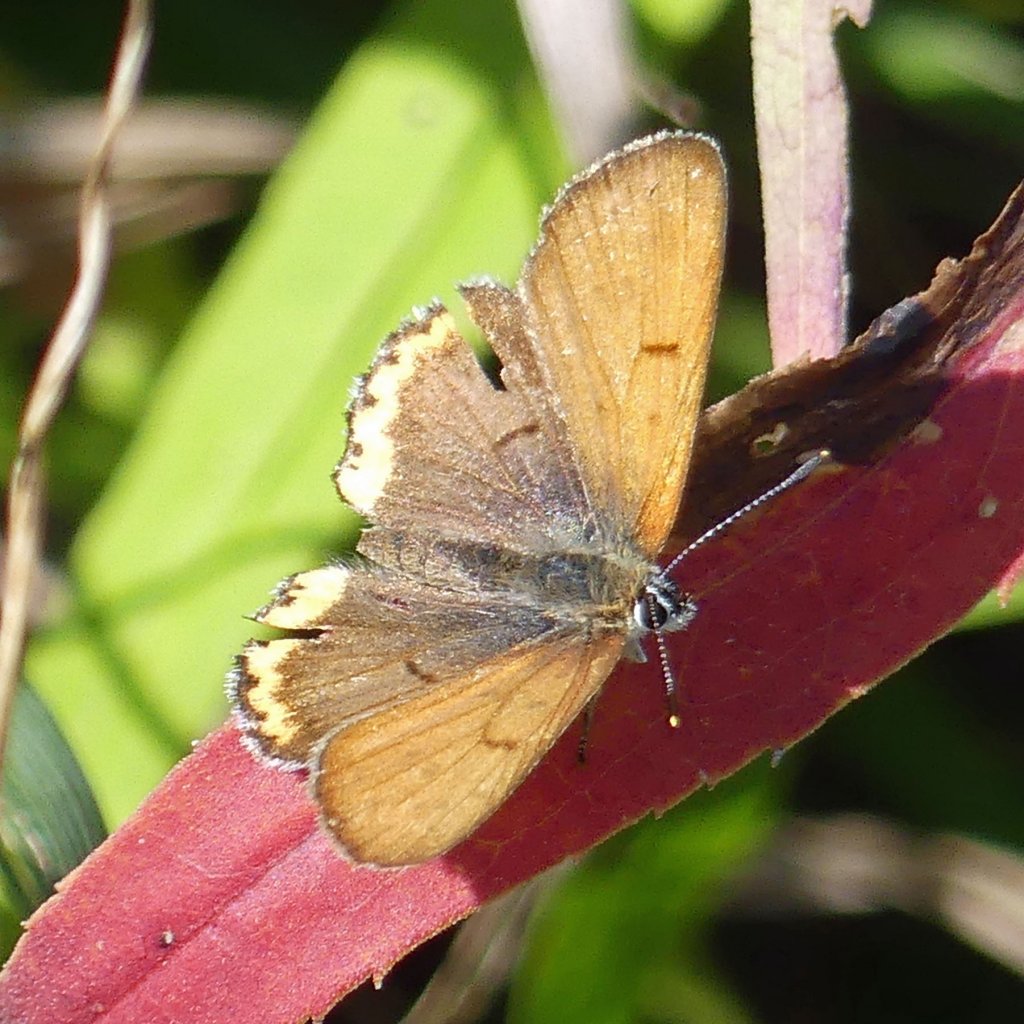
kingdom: Animalia
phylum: Arthropoda
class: Insecta
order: Lepidoptera
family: Sesiidae
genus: Sesia
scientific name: Sesia Lycaena hyllus
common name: Bronze Copper
